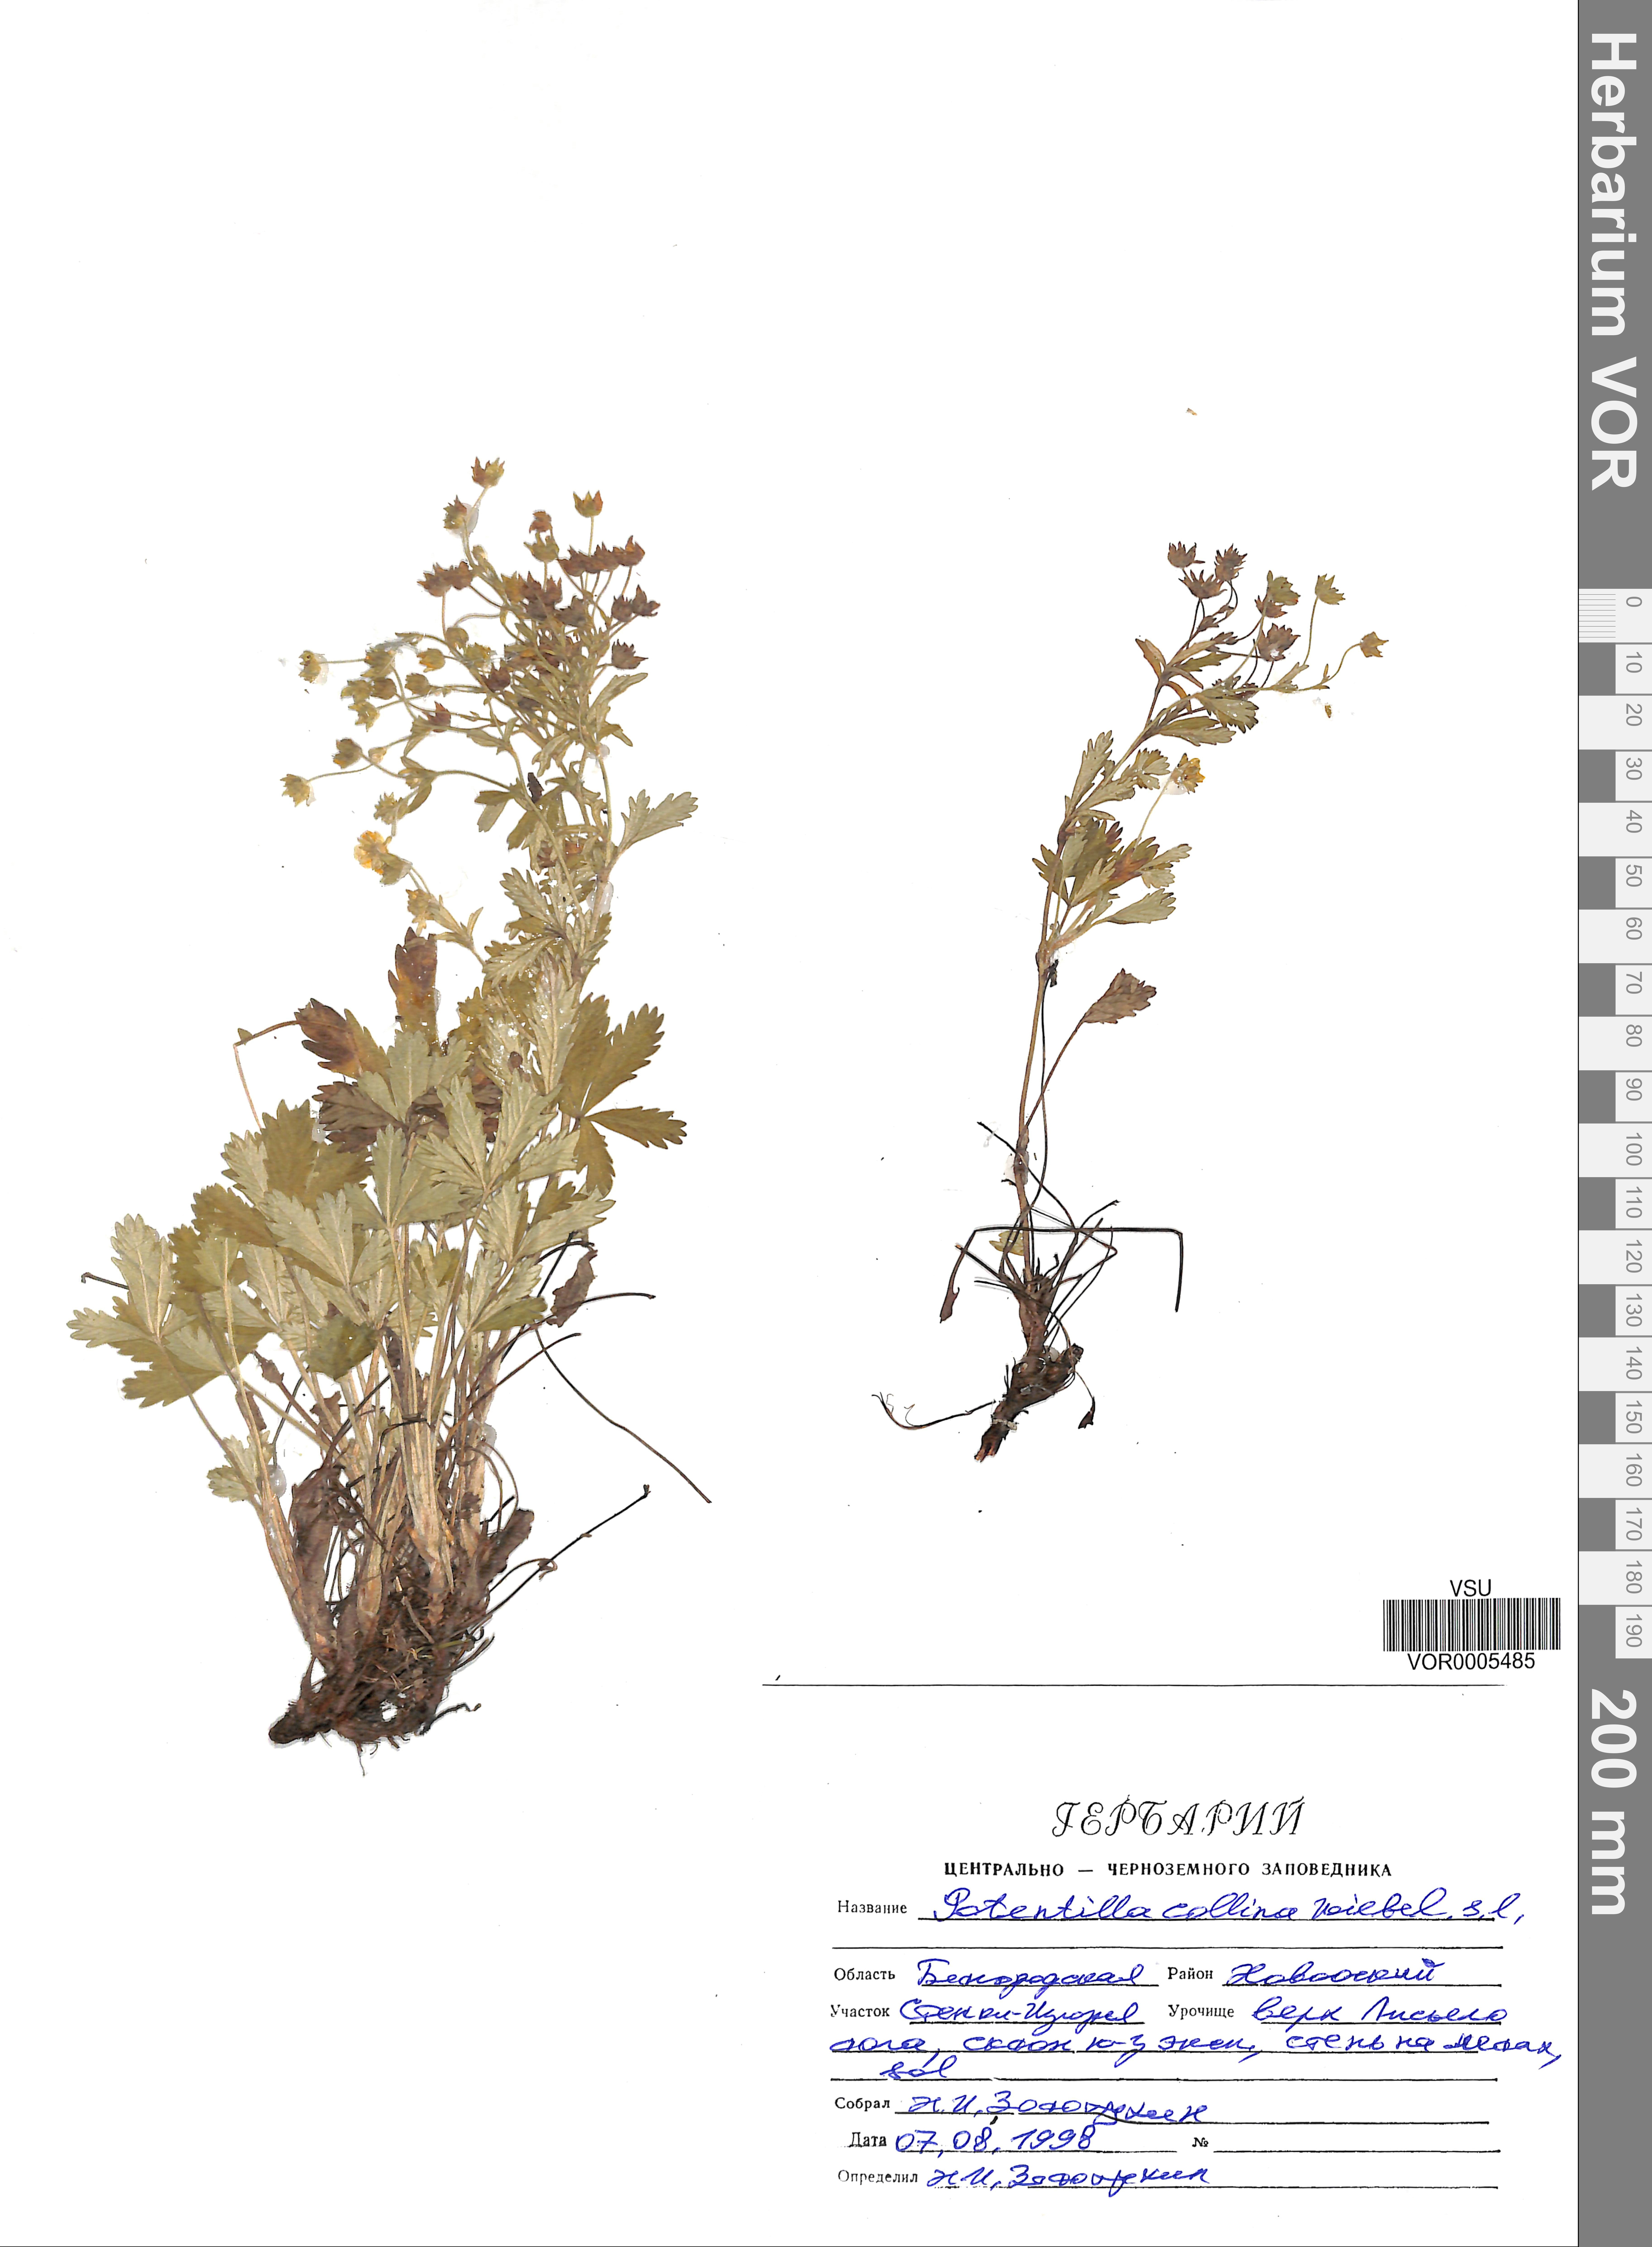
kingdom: Plantae
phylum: Tracheophyta
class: Magnoliopsida
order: Rosales
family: Rosaceae
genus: Potentilla
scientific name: Potentilla collina
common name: Palmleaf cinquefoil
